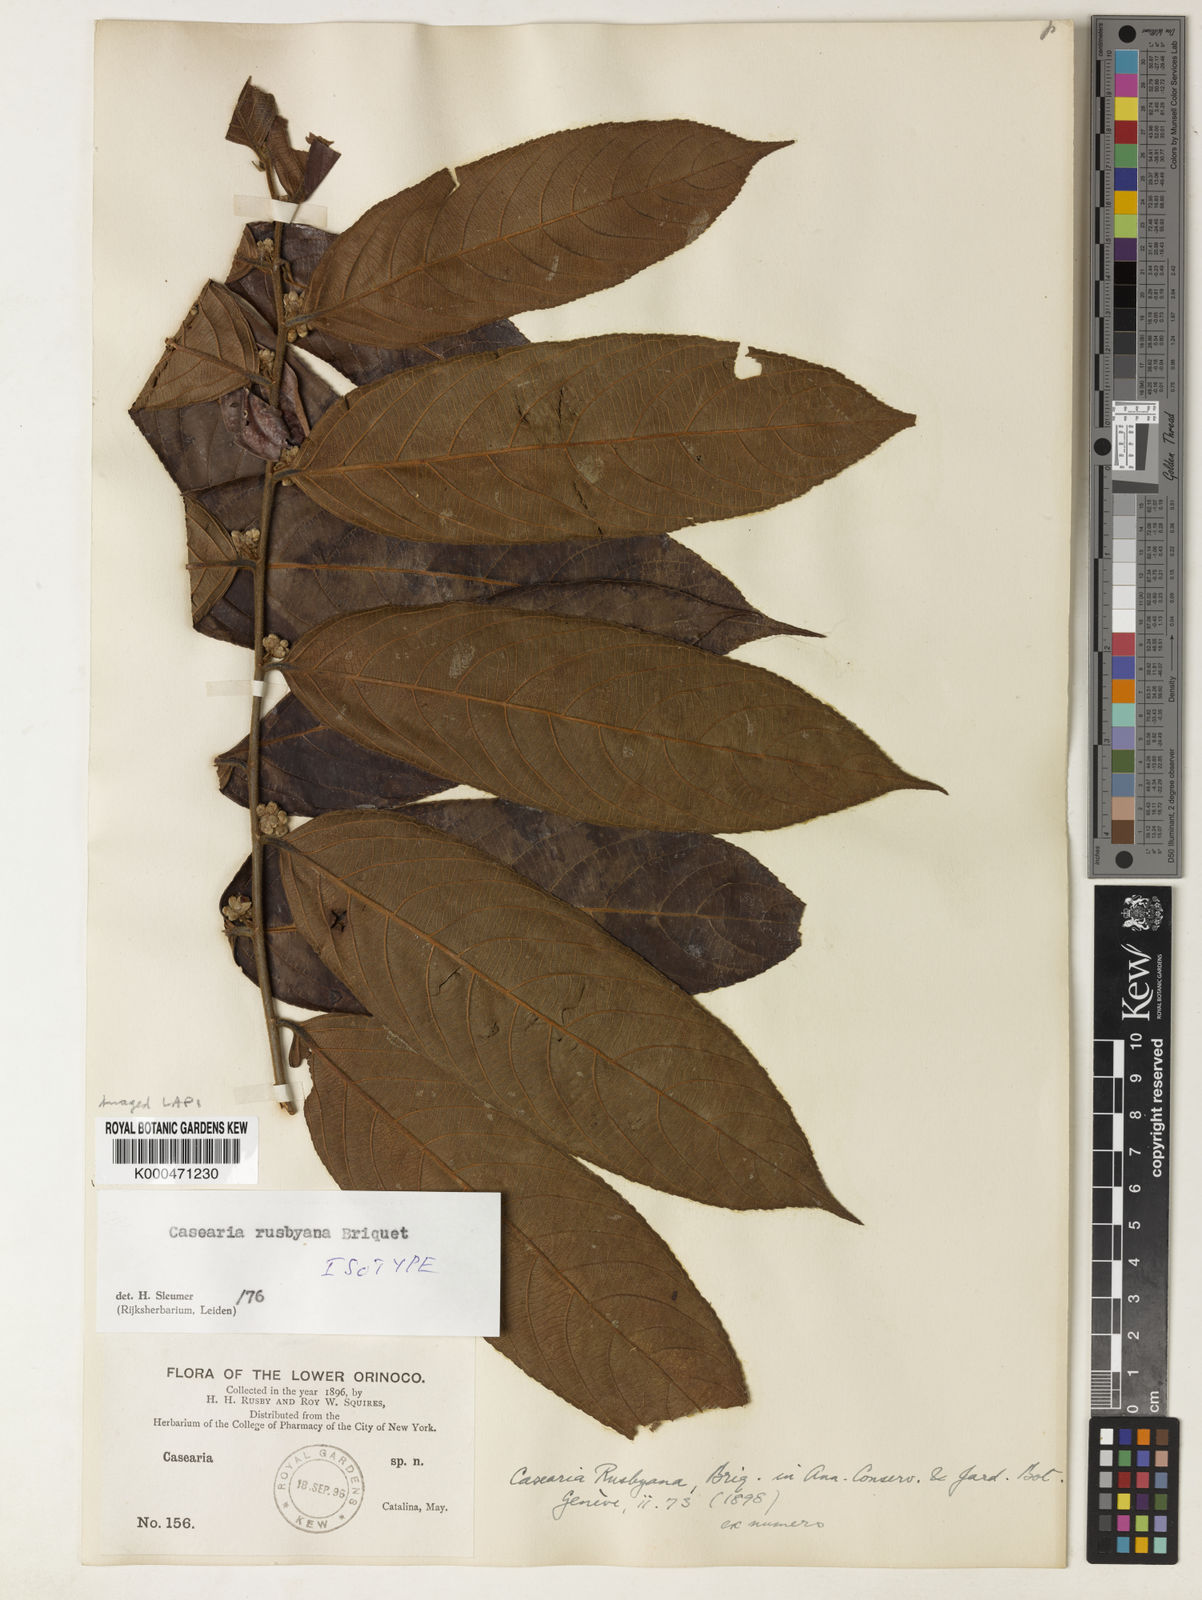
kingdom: Plantae
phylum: Tracheophyta
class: Magnoliopsida
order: Malpighiales
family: Salicaceae
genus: Casearia
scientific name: Casearia rusbyana
